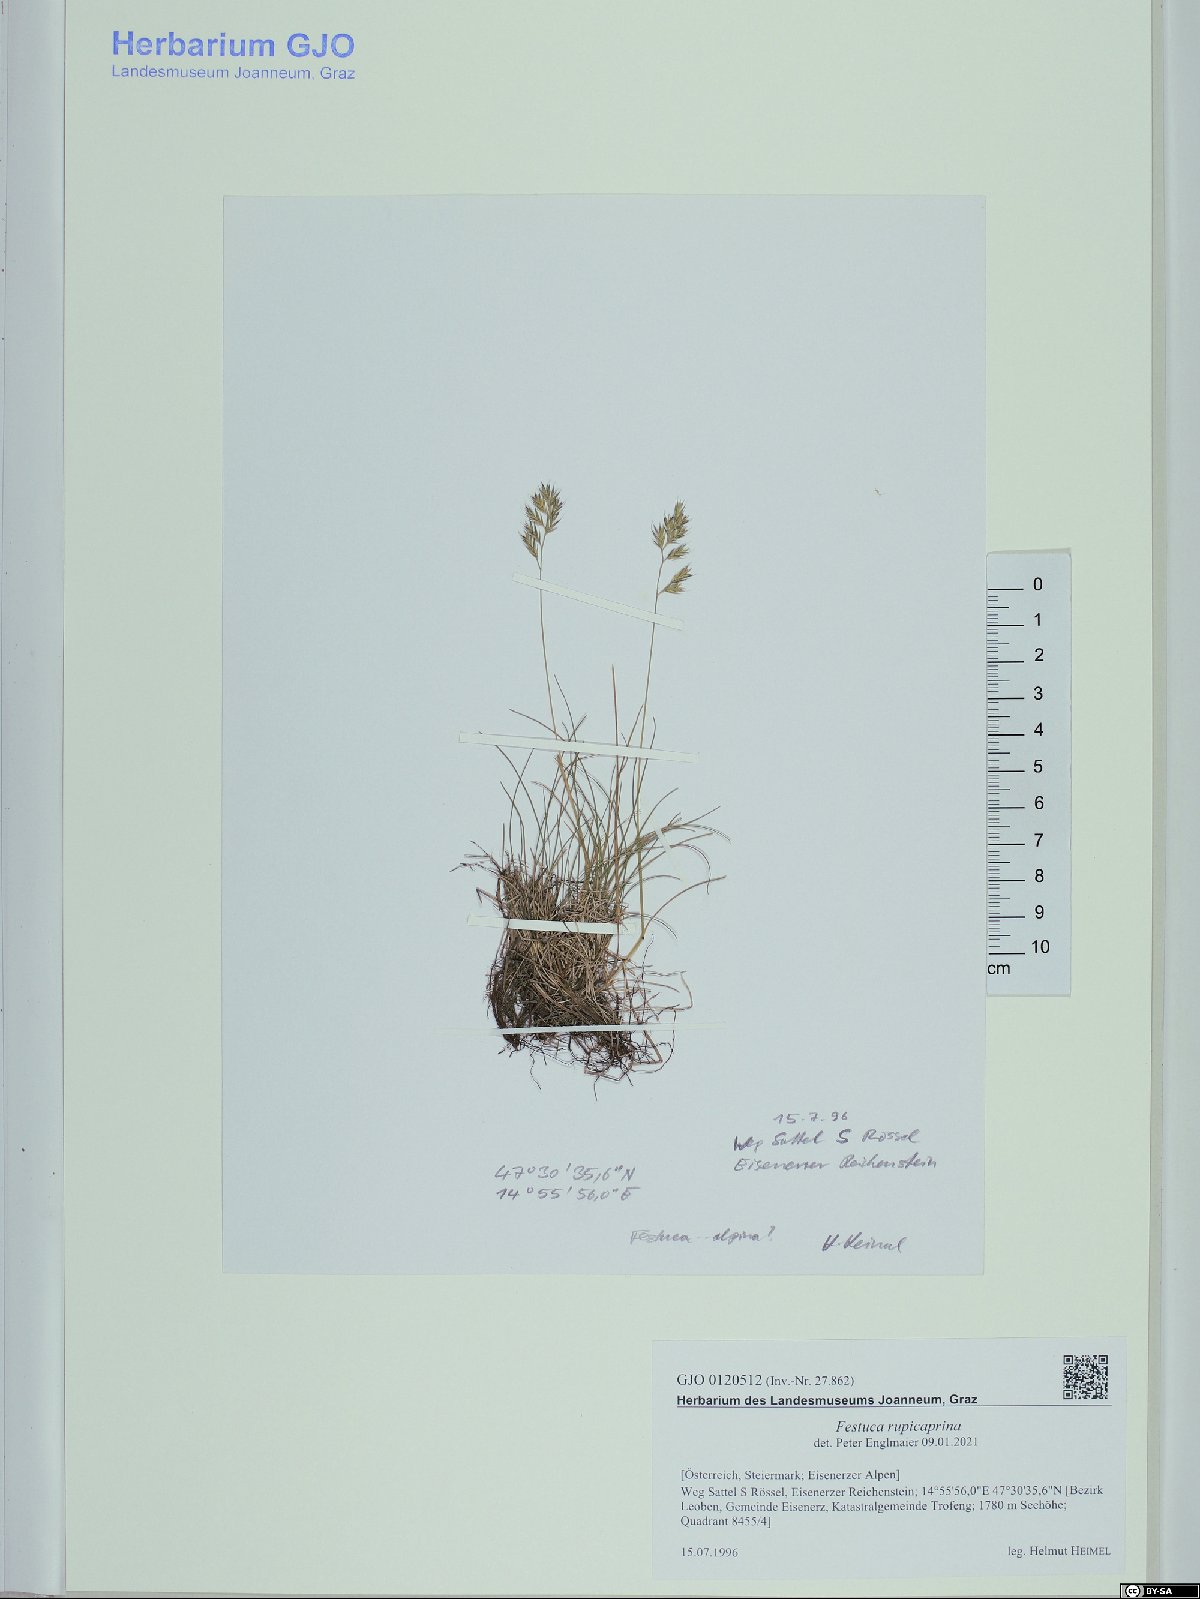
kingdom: Plantae
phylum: Tracheophyta
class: Liliopsida
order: Poales
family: Poaceae
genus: Festuca
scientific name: Festuca rupicaprina
